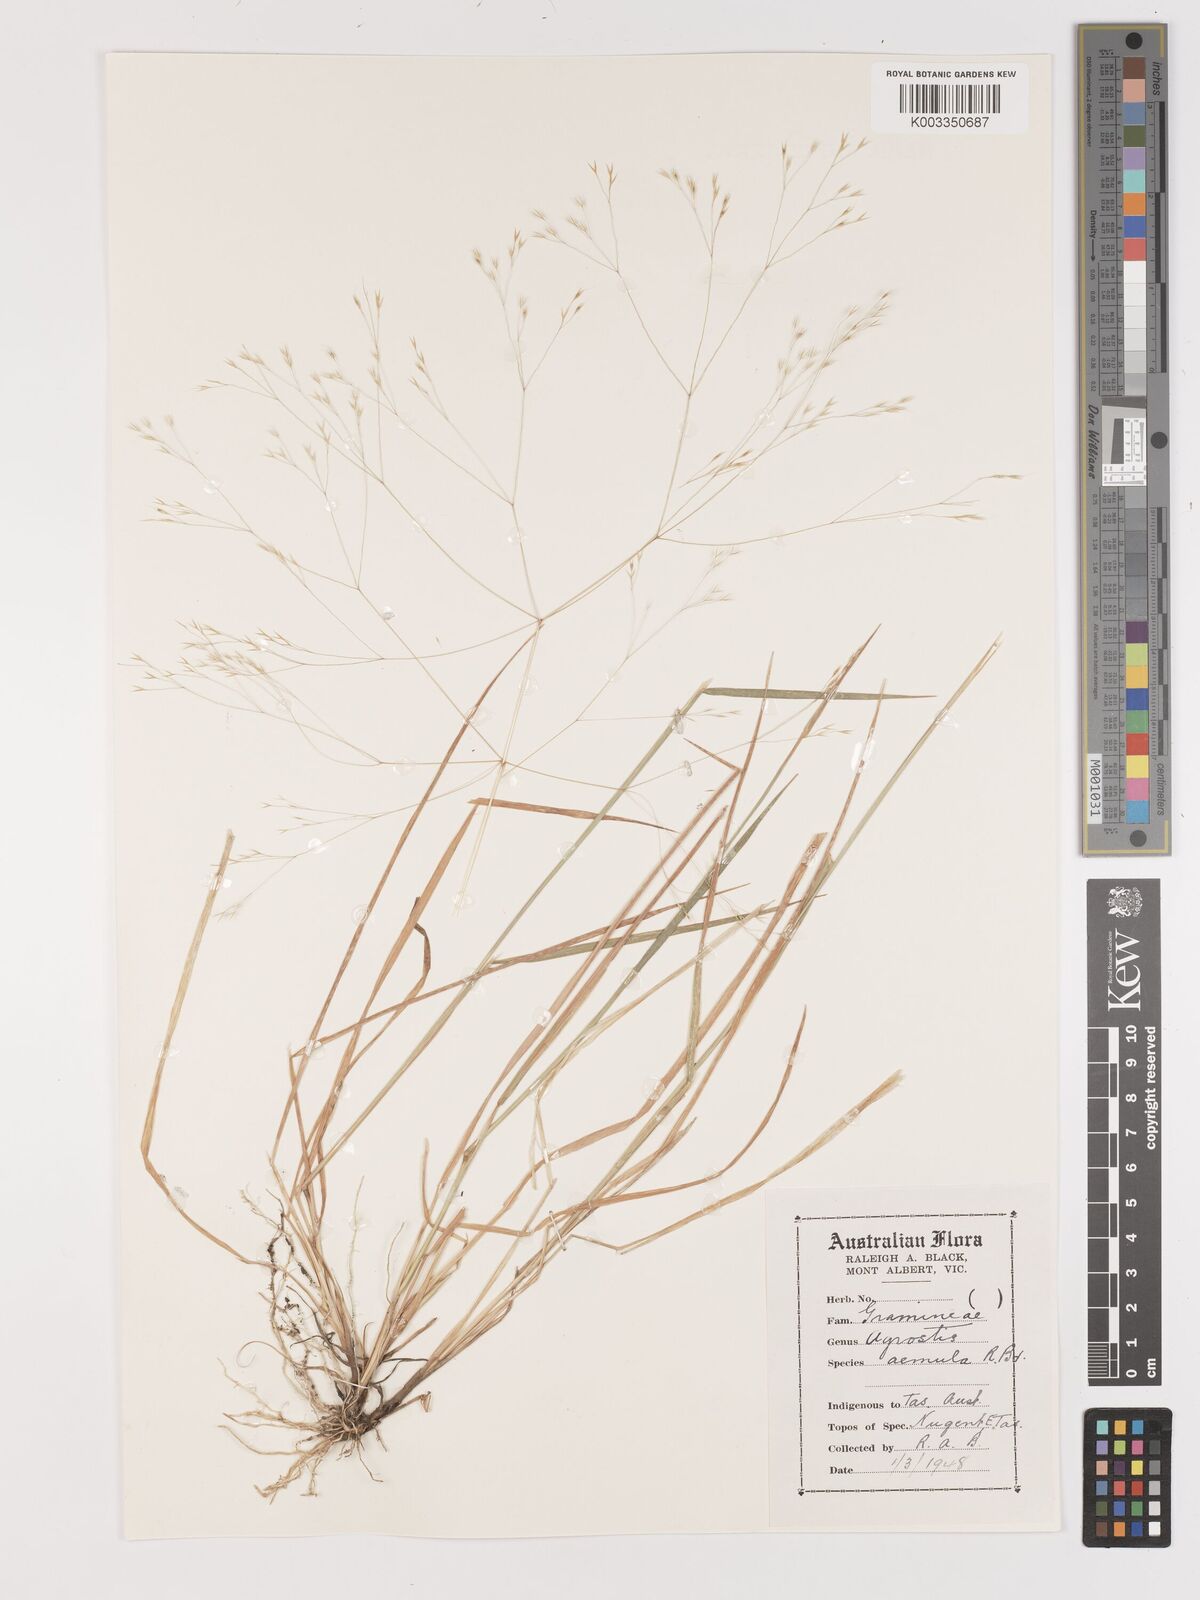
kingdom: Plantae
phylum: Tracheophyta
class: Liliopsida
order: Poales
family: Poaceae
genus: Lachnagrostis
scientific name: Lachnagrostis aemula
